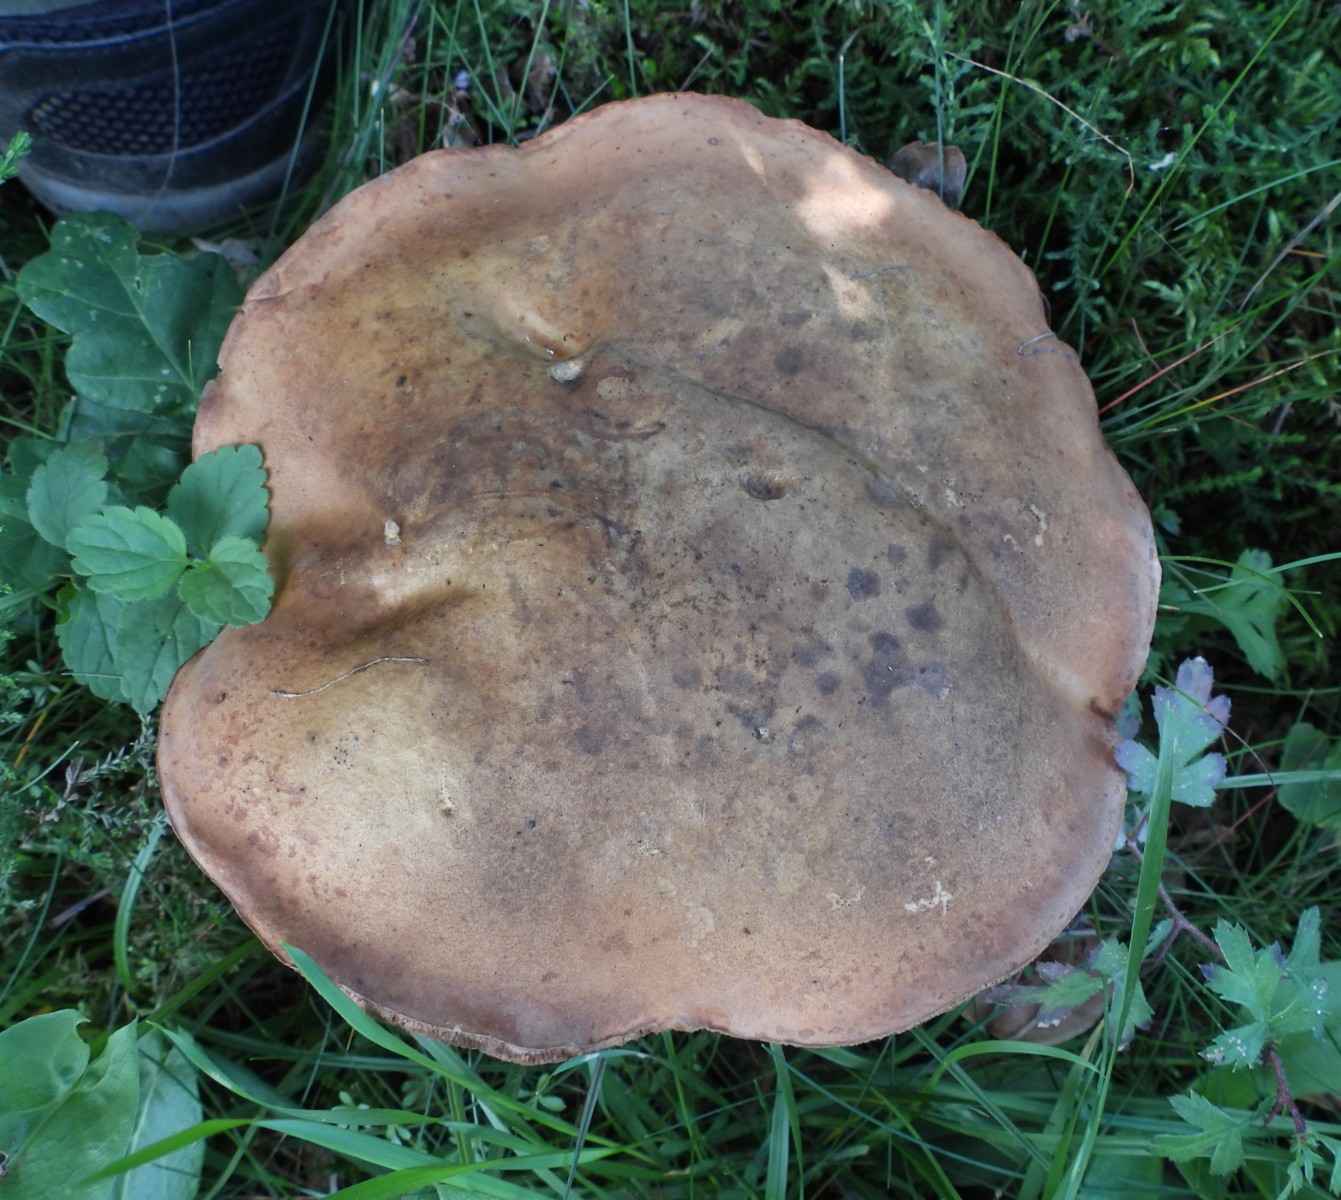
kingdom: Fungi
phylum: Basidiomycota
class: Agaricomycetes
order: Boletales
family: Boletaceae
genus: Tylopilus
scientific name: Tylopilus felleus
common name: galderørhat
